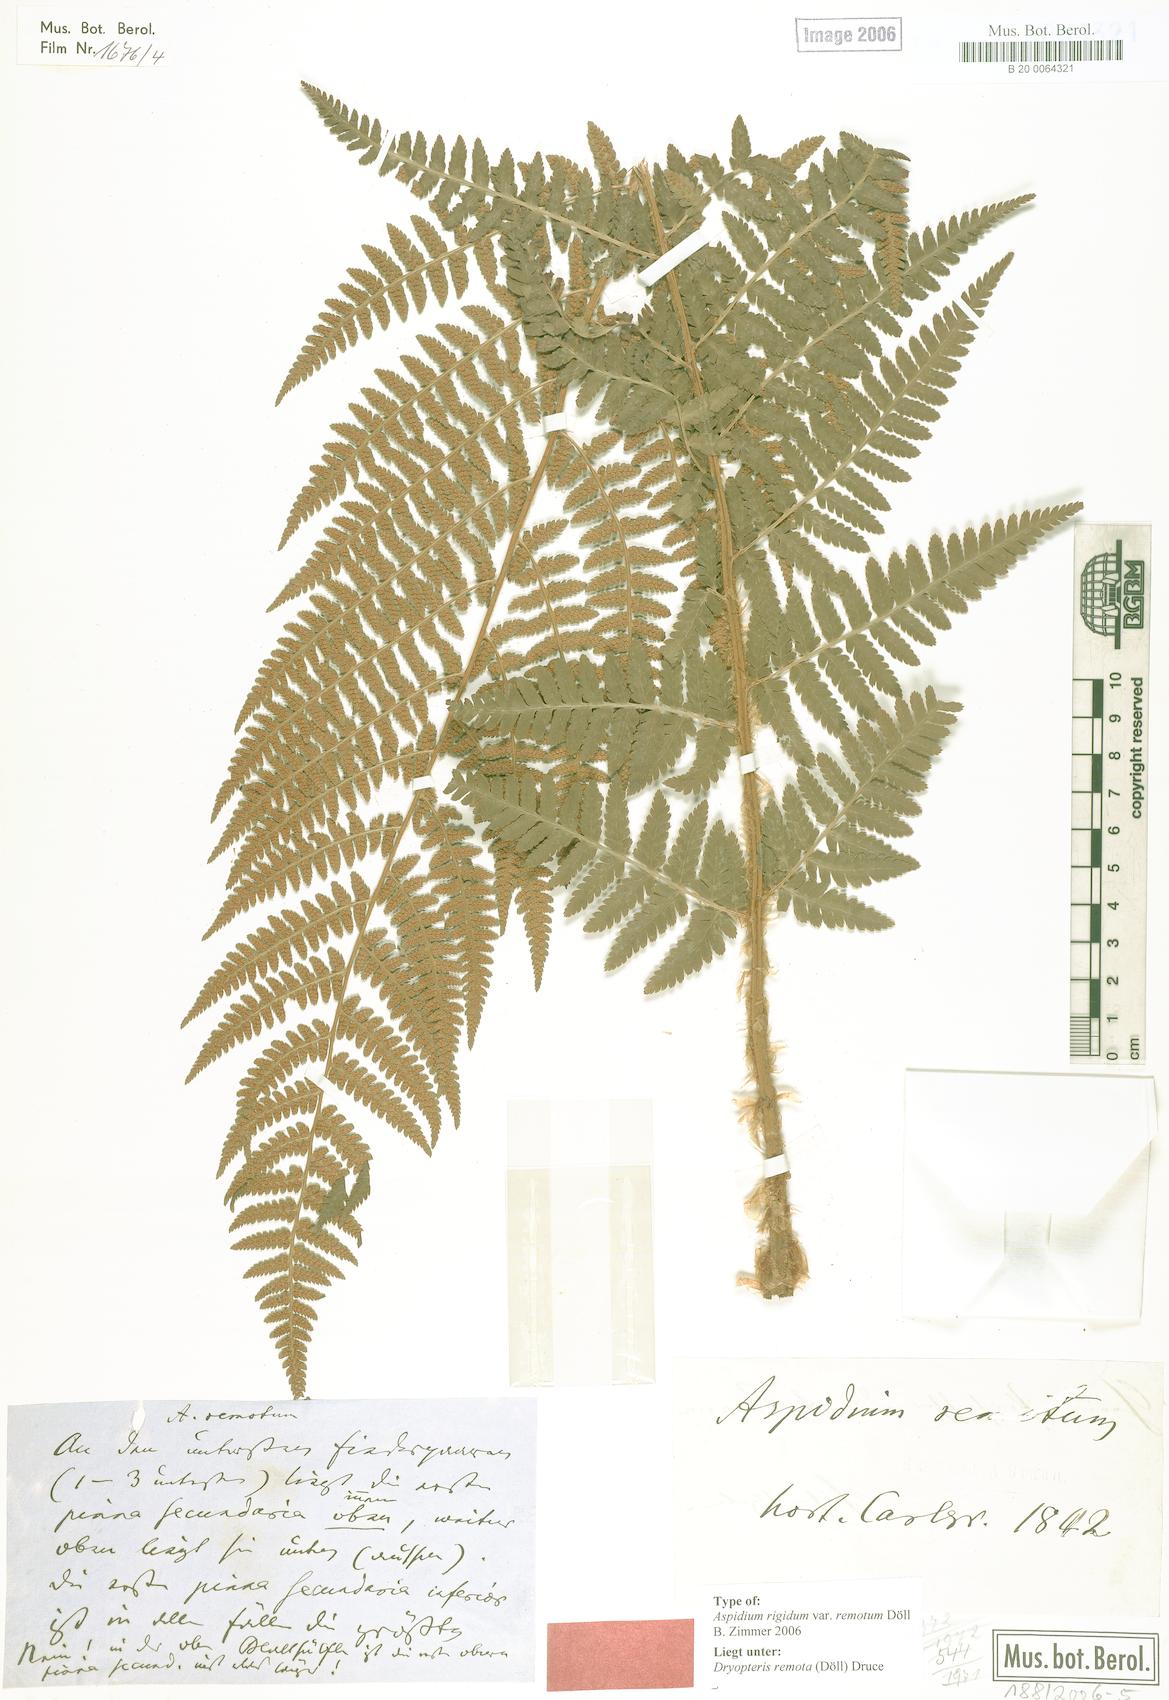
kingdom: Plantae
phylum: Tracheophyta
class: Polypodiopsida
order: Polypodiales
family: Dryopteridaceae
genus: Dryopteris
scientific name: Dryopteris remota
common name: Scaly buckler-fern
